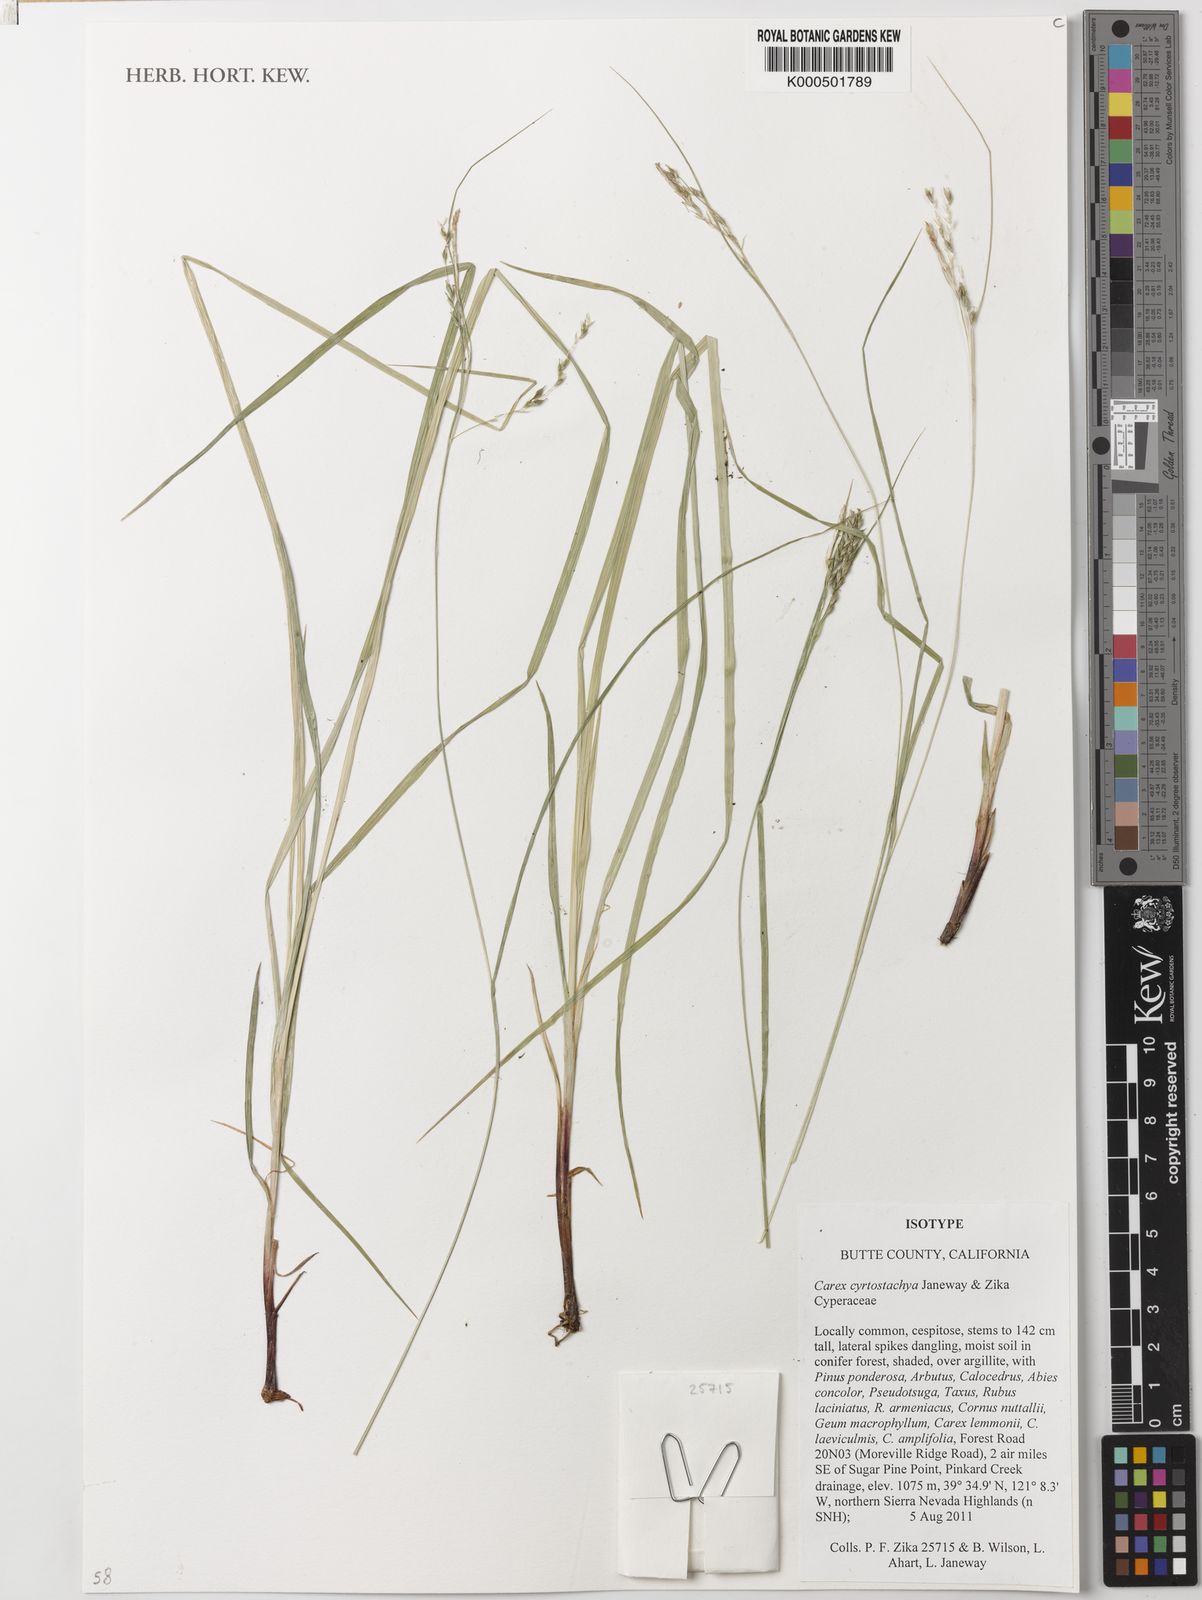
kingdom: Plantae
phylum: Tracheophyta
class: Liliopsida
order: Poales
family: Cyperaceae
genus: Carex
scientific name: Carex cyrtostachya
